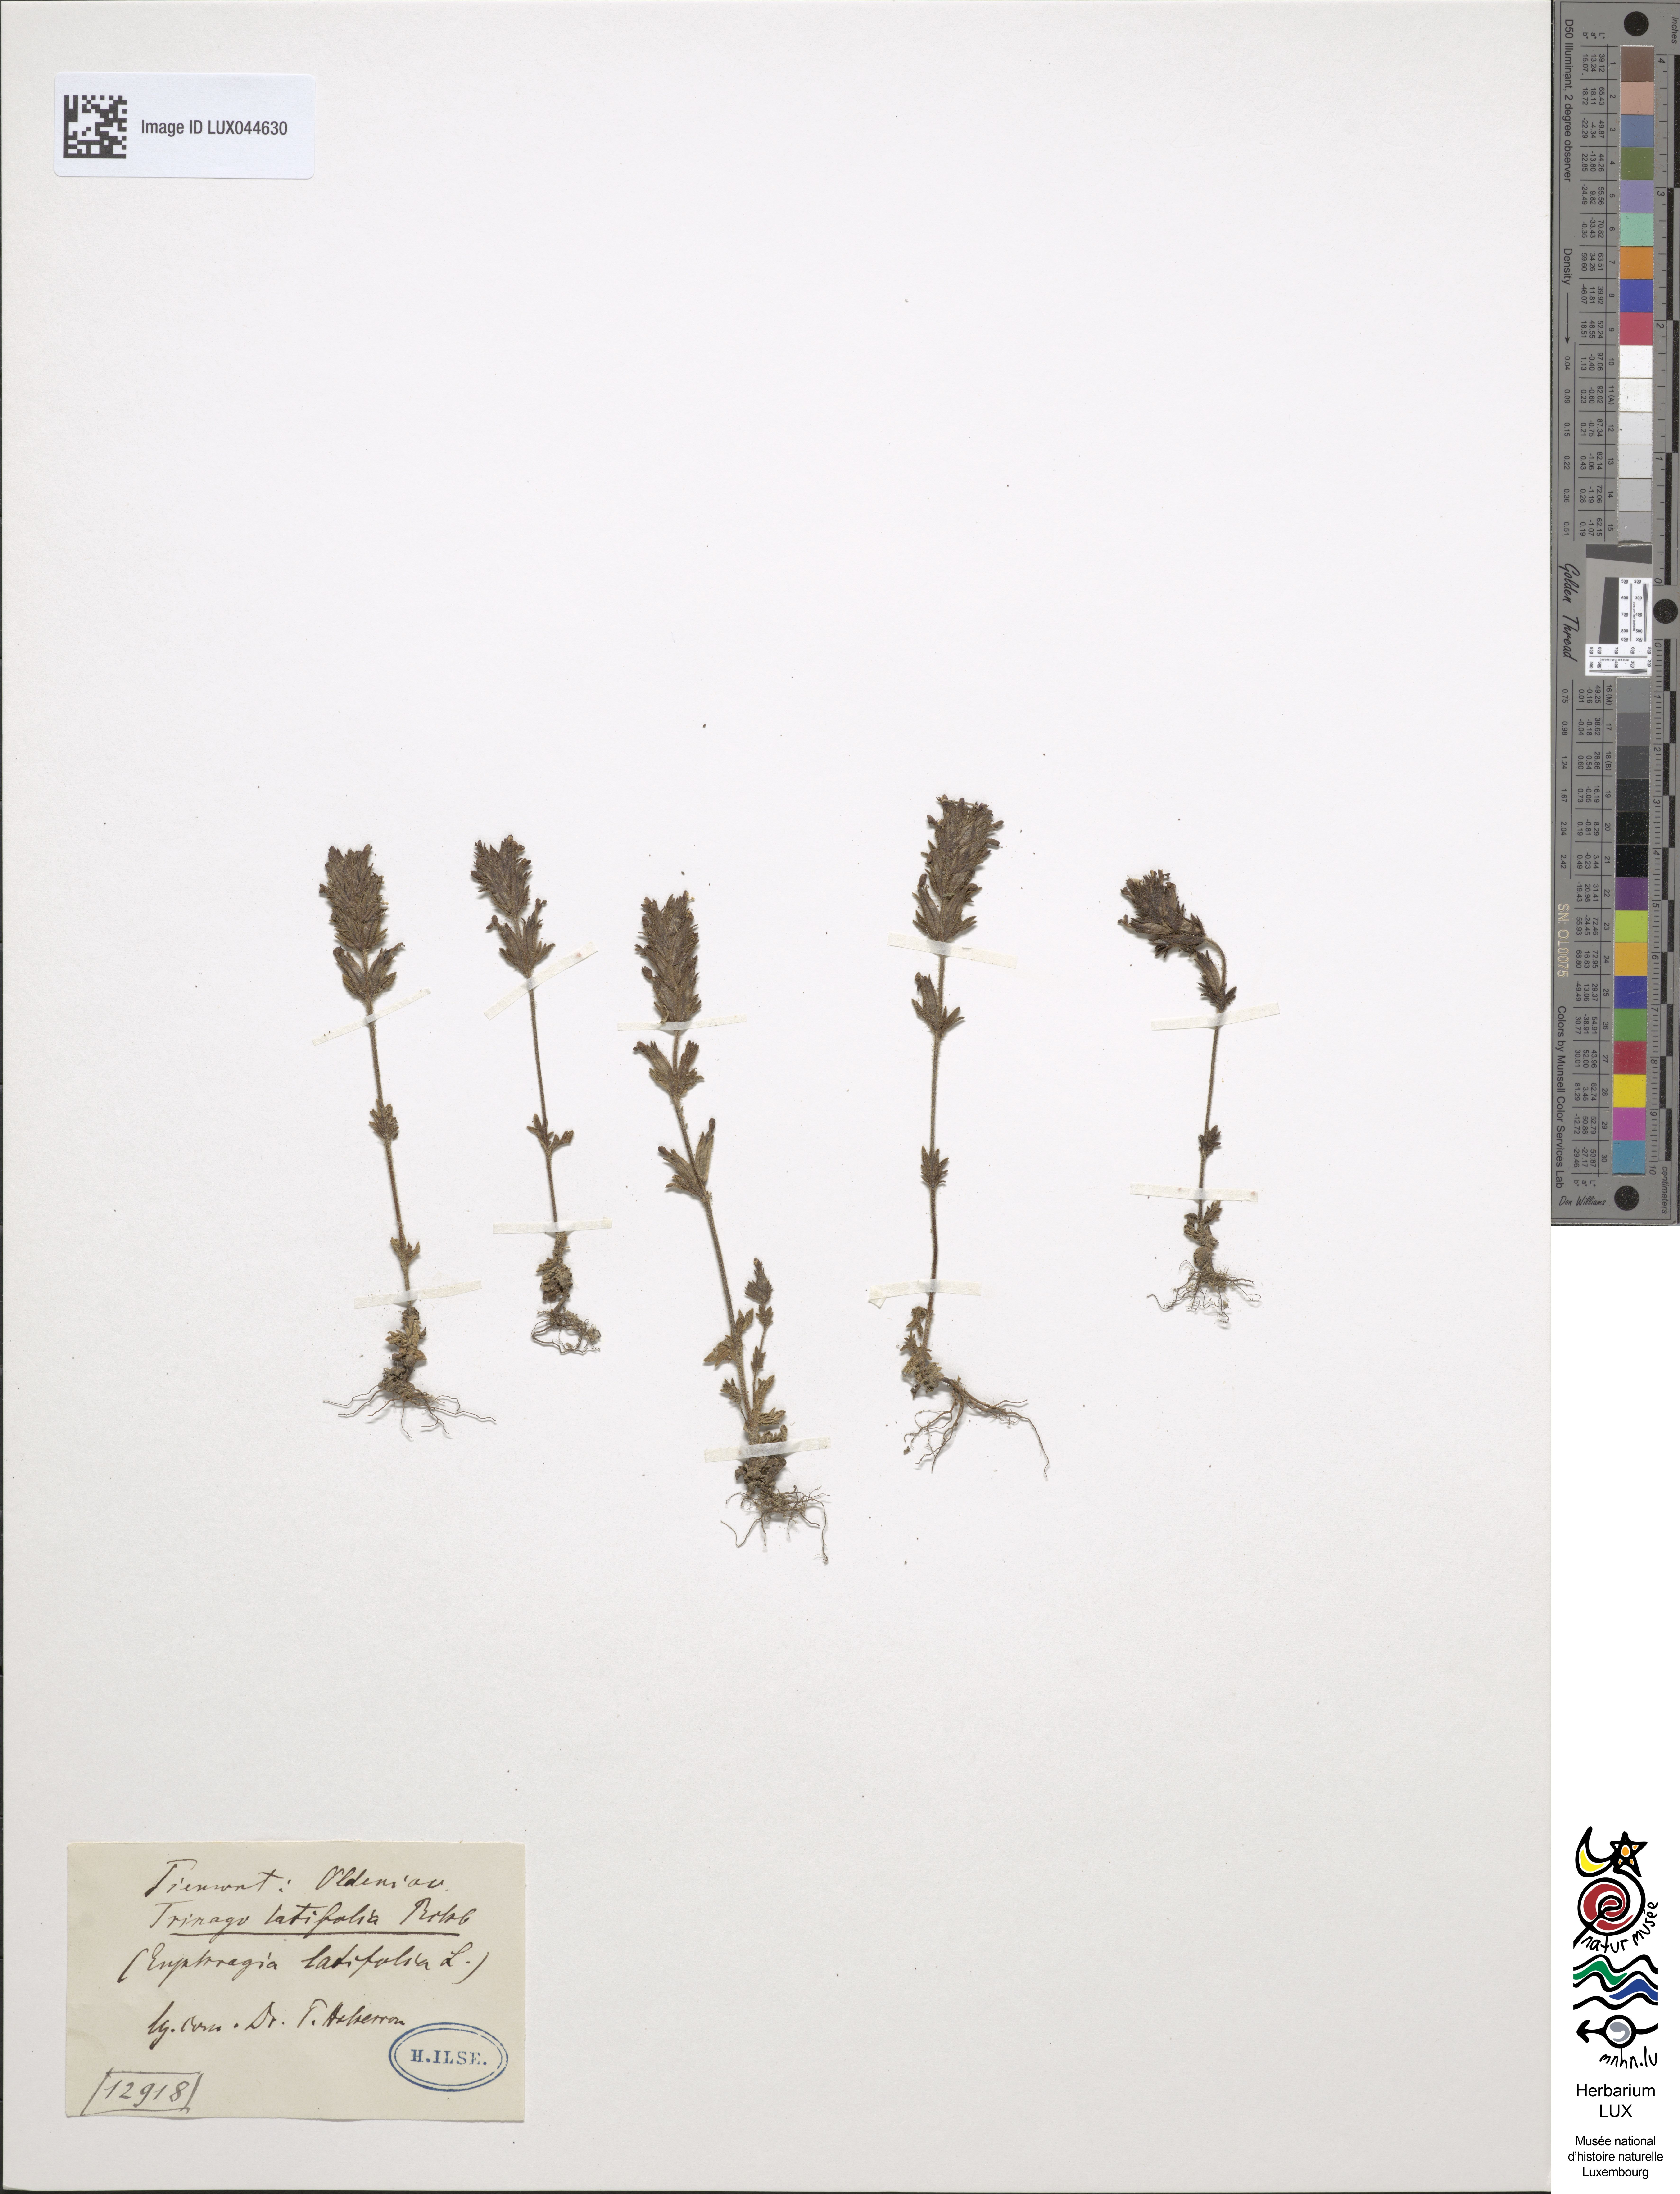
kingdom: Plantae
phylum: Tracheophyta
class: Magnoliopsida
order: Lamiales
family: Orobanchaceae
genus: Parentucellia
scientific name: Parentucellia latifolia
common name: Broadleaf glandweed
